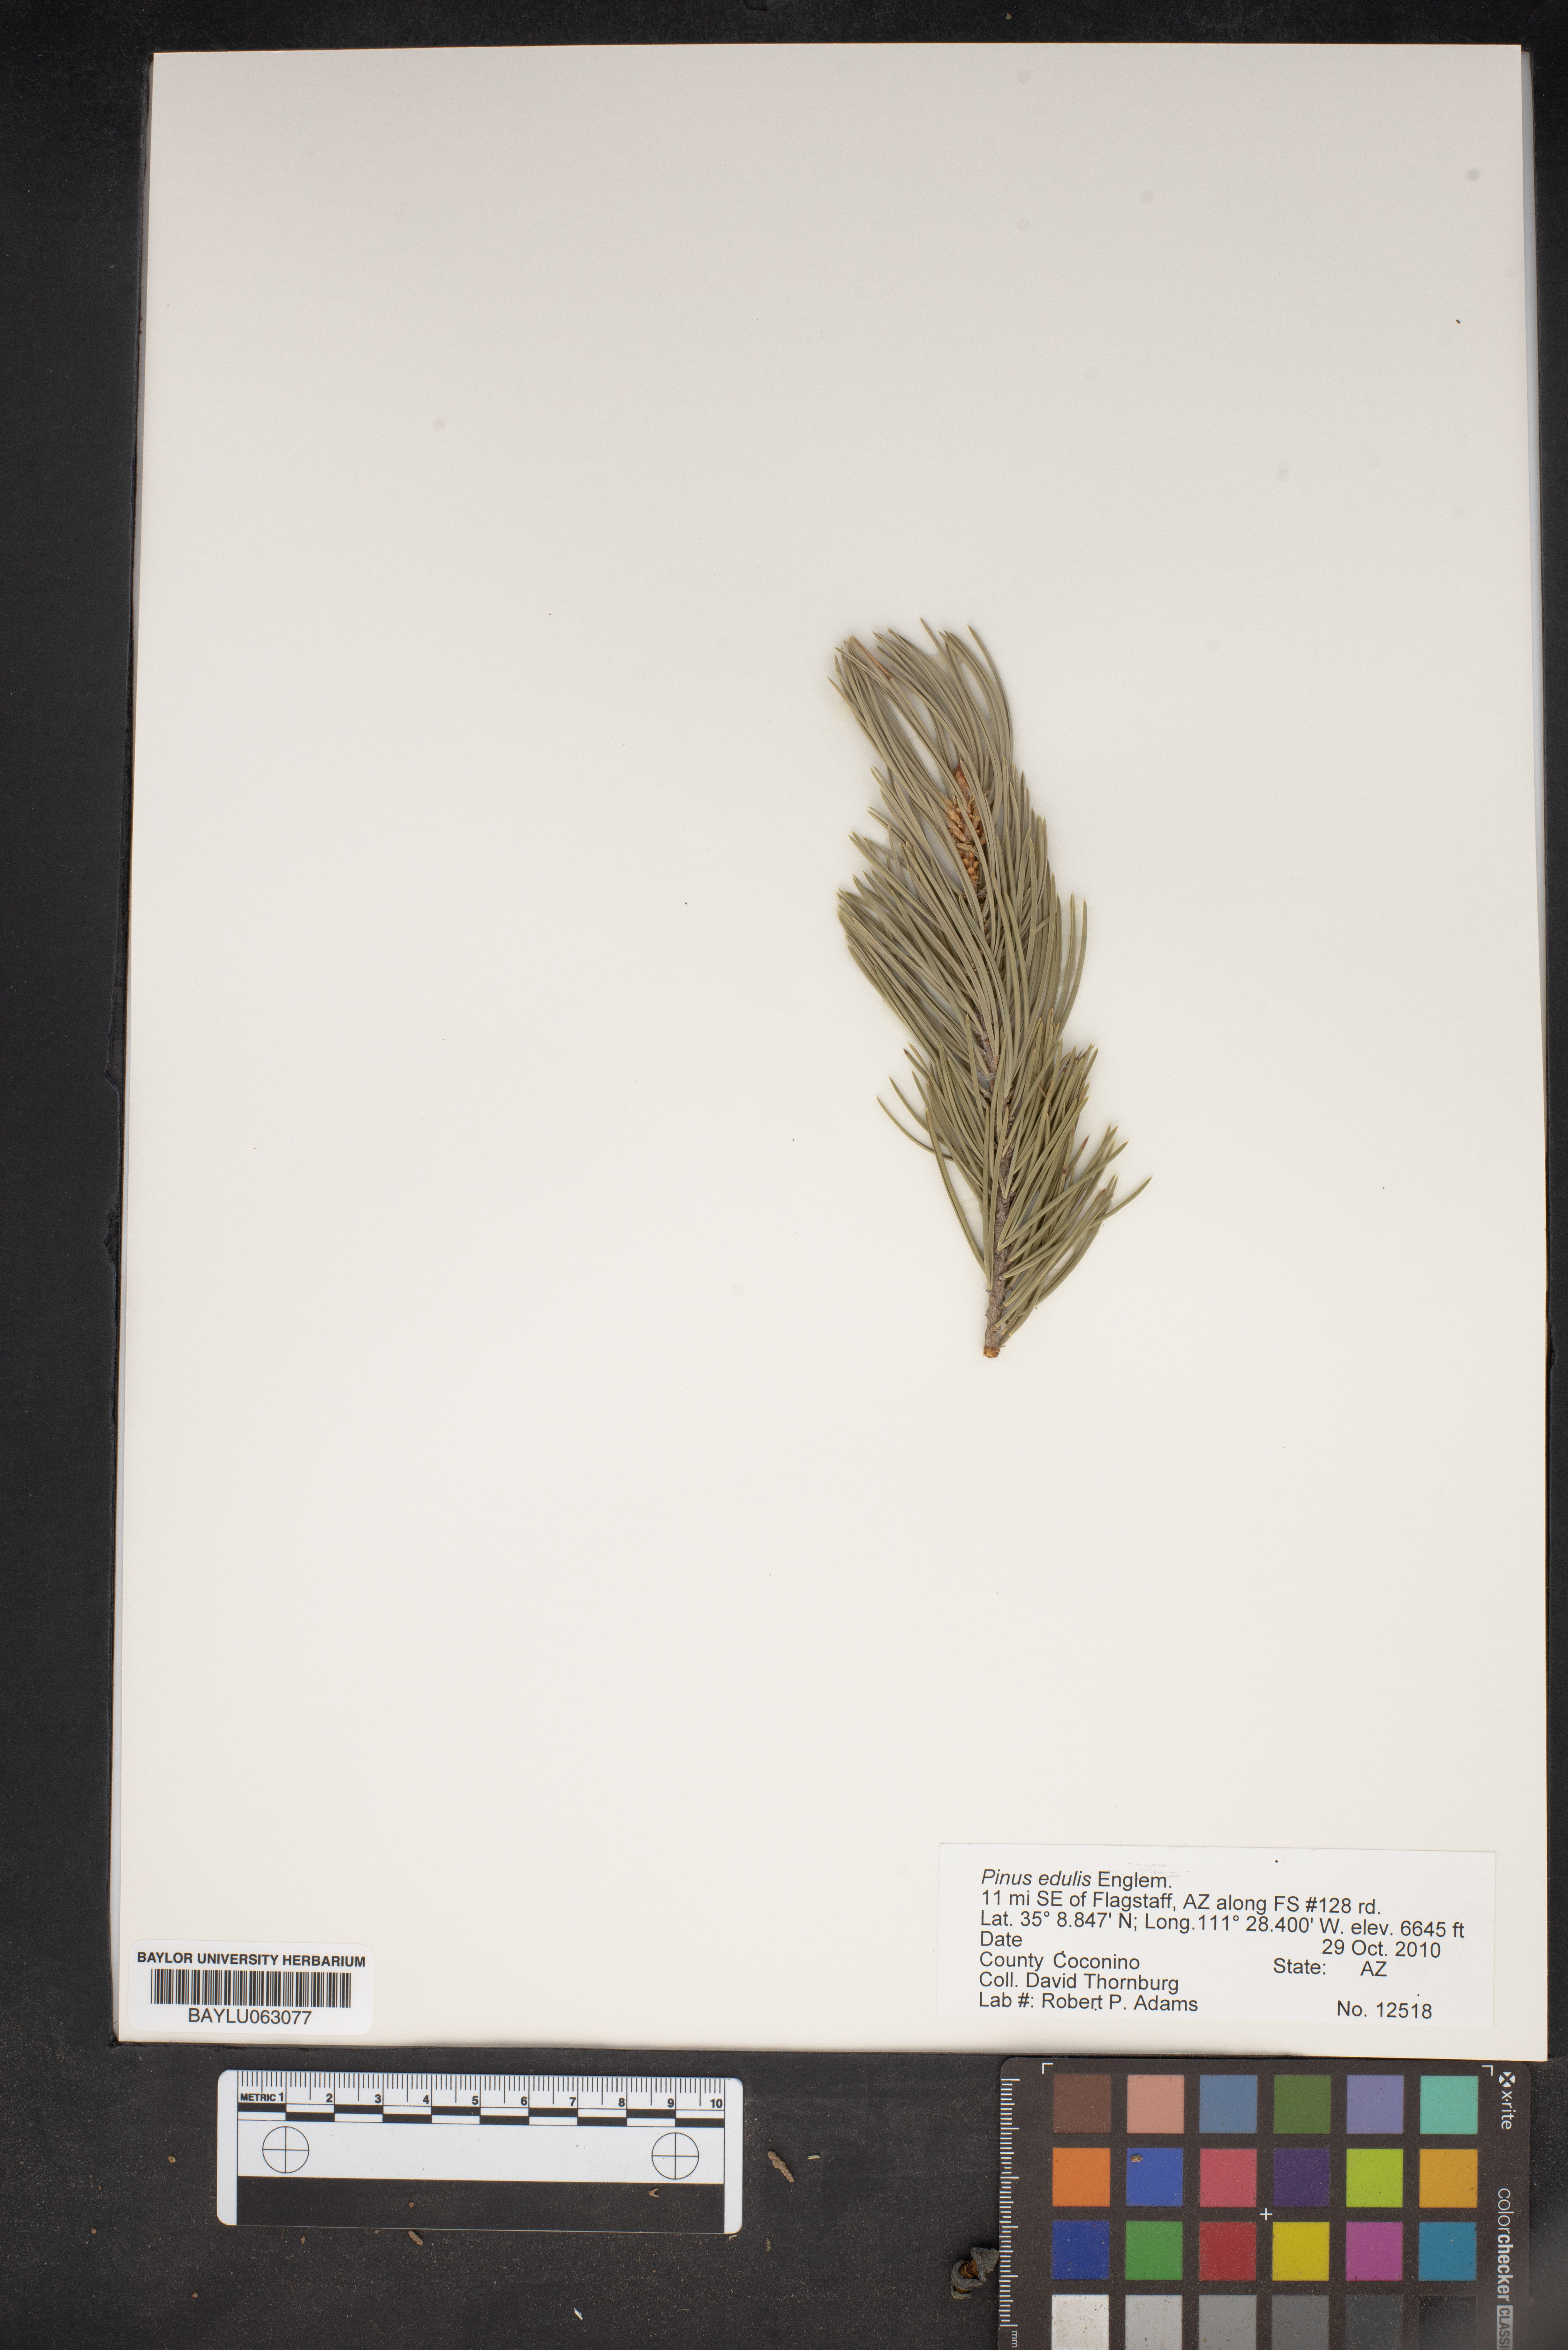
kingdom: Plantae
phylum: Tracheophyta
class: Pinopsida
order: Pinales
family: Pinaceae
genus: Pinus
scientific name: Pinus edulis
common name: Colorado pinyon
